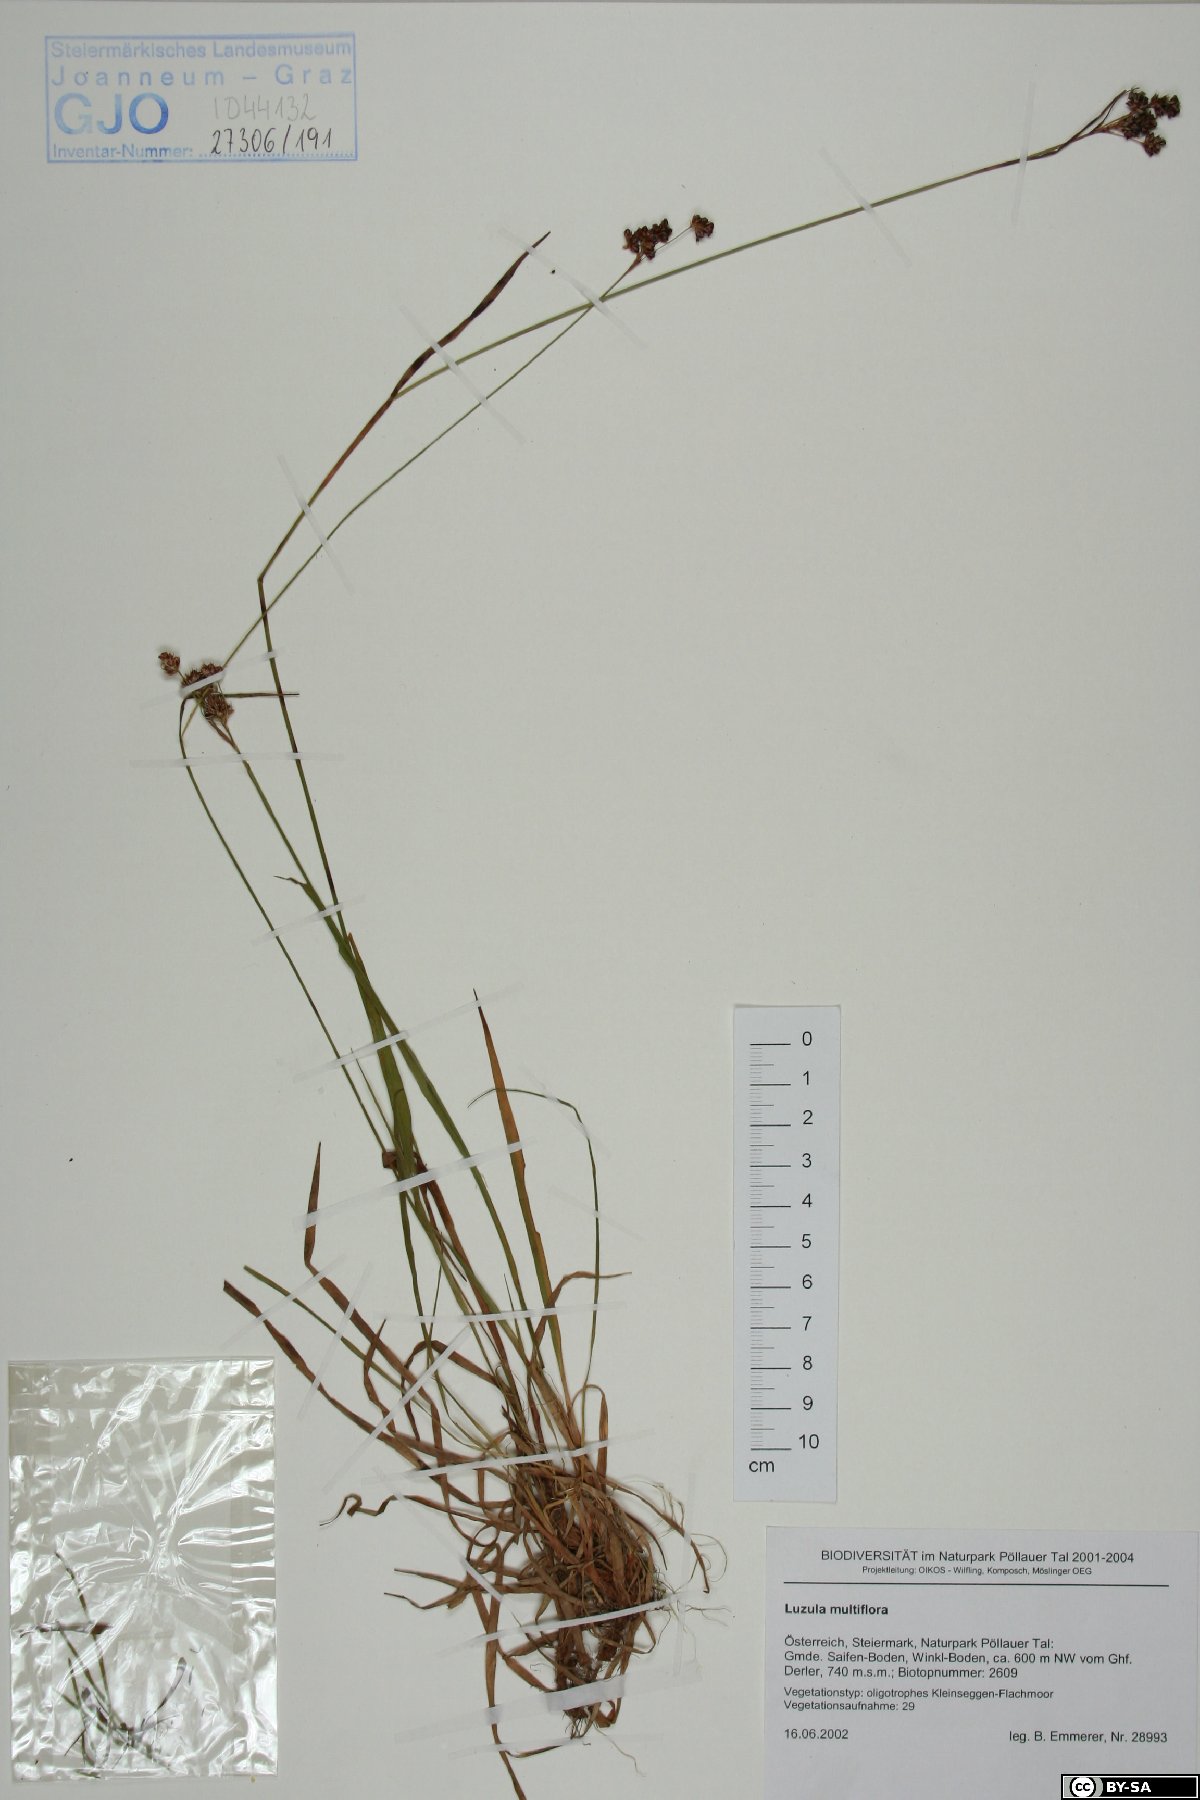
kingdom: Plantae
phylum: Tracheophyta
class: Liliopsida
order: Poales
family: Juncaceae
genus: Luzula
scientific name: Luzula multiflora
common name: Heath wood-rush
